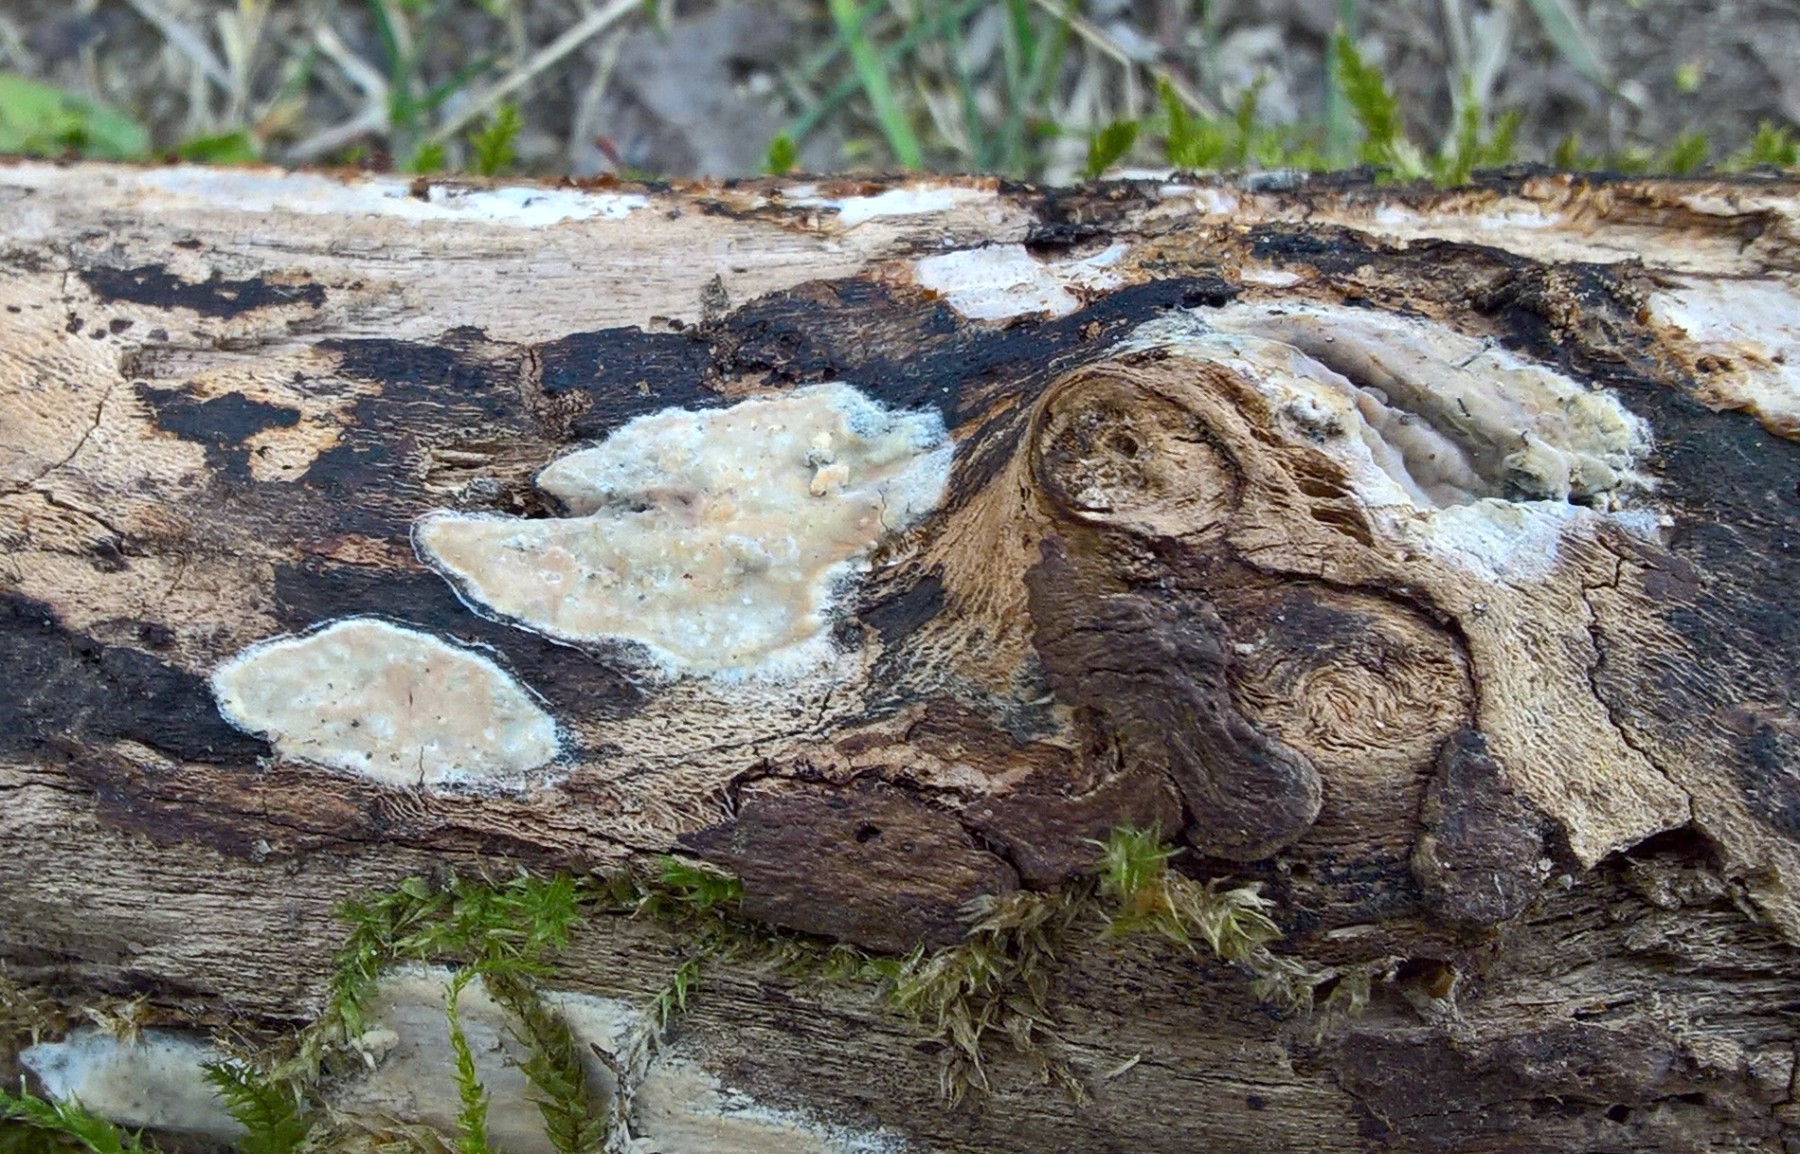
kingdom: Fungi
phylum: Basidiomycota
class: Agaricomycetes
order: Corticiales
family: Corticiaceae
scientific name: Corticiaceae
